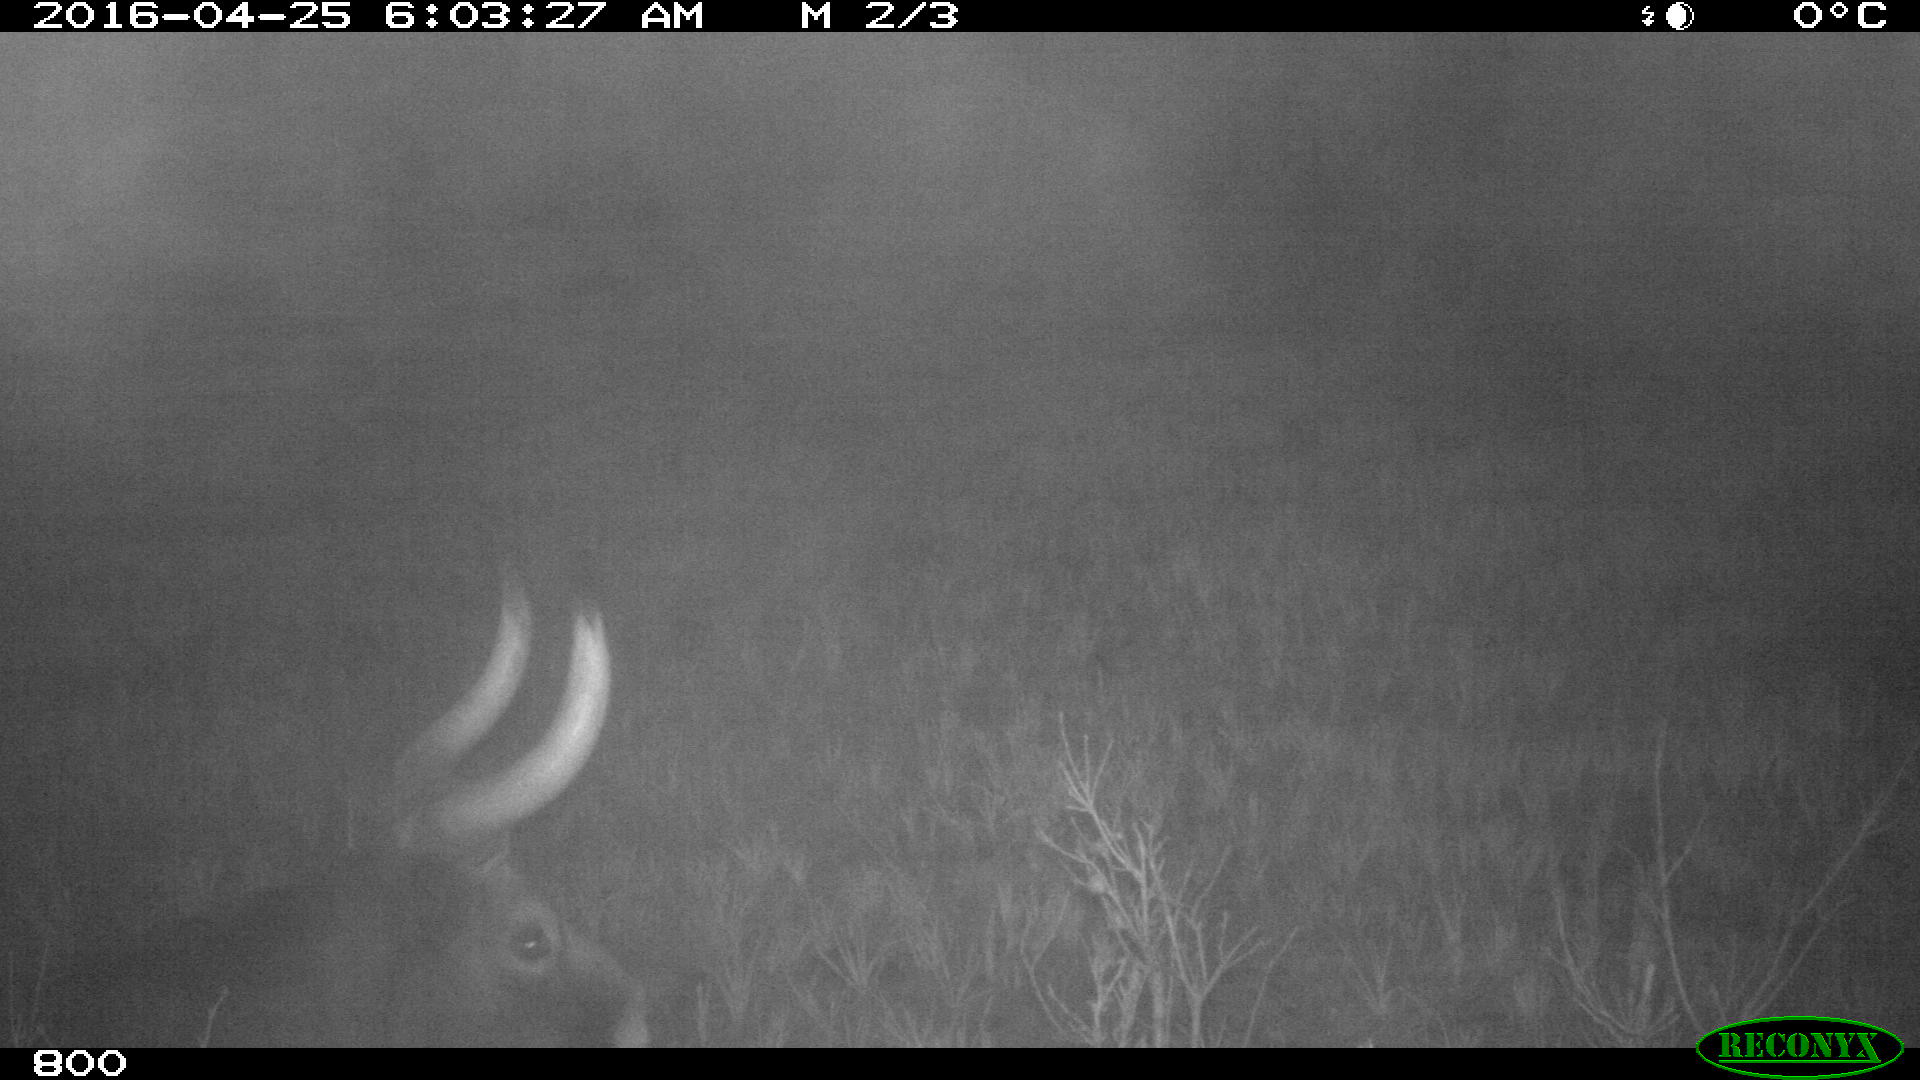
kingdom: Animalia
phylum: Chordata
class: Mammalia
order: Artiodactyla
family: Bovidae
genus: Bos
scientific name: Bos taurus
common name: Domesticated cattle
